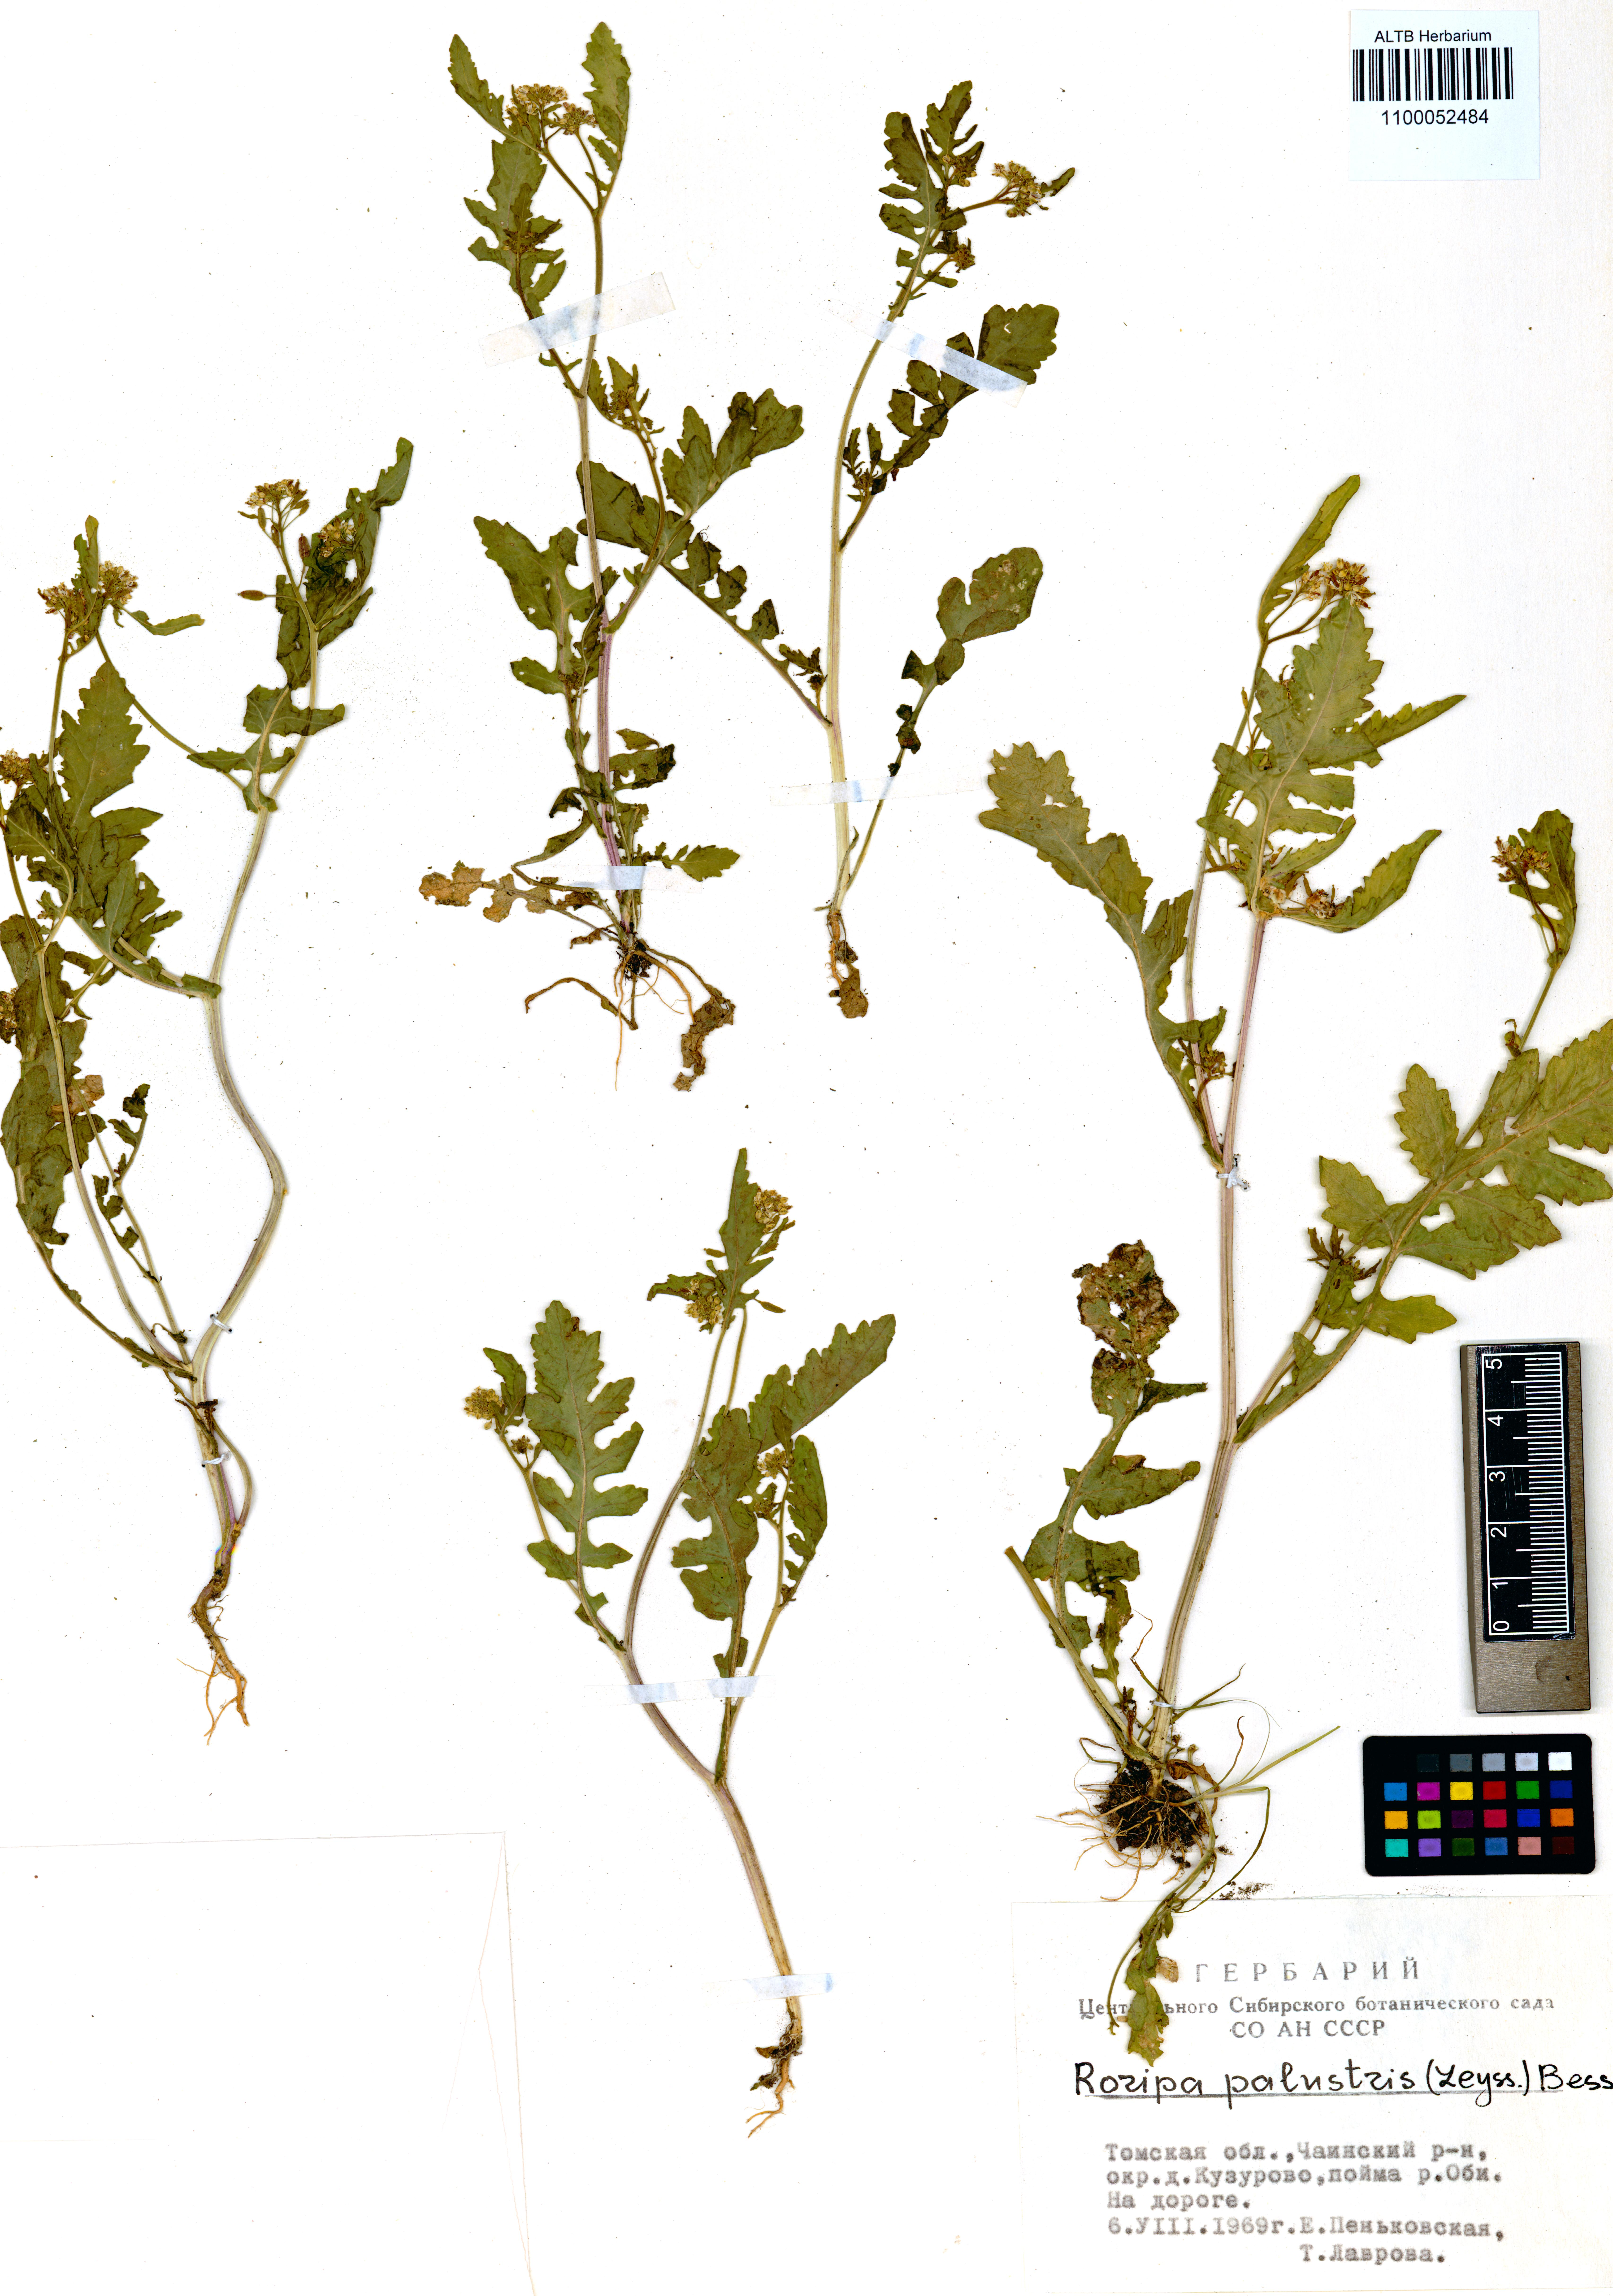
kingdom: Plantae
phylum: Tracheophyta
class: Magnoliopsida
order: Brassicales
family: Brassicaceae
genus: Rorippa
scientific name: Rorippa palustris
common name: Marsh yellow-cress
